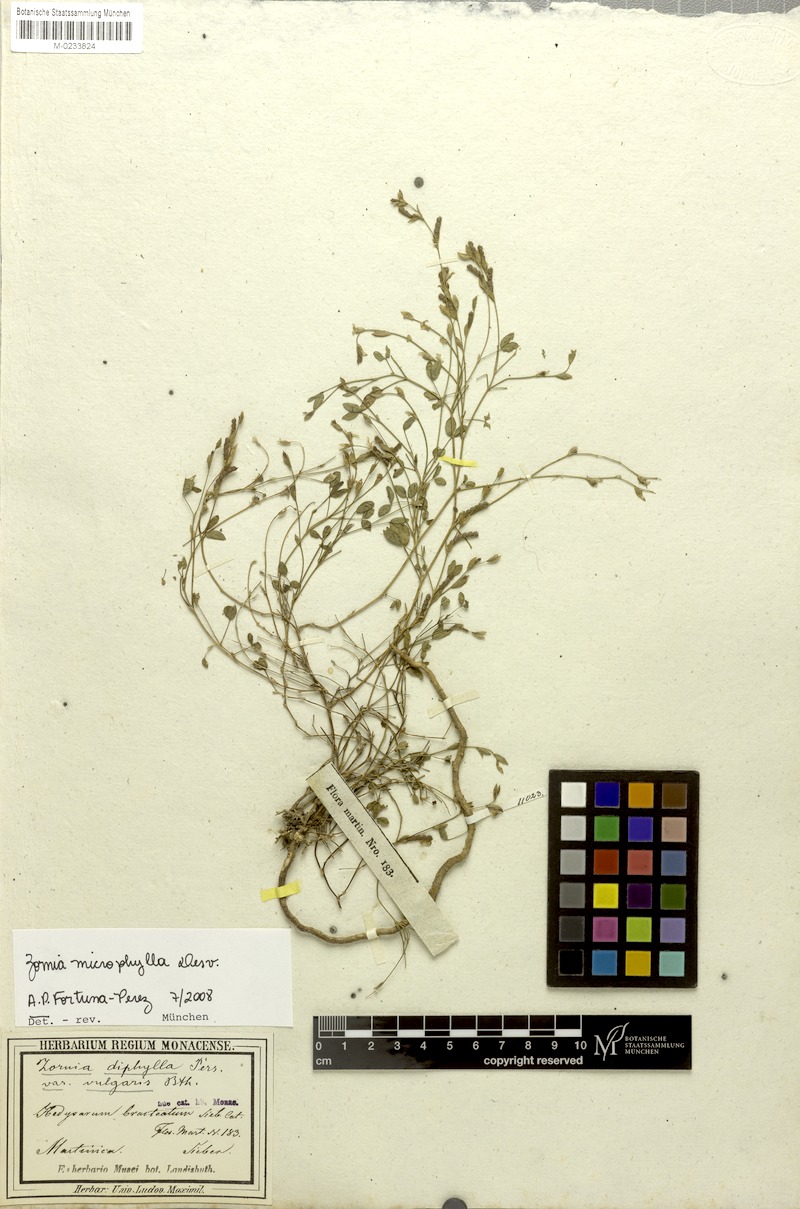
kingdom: Plantae
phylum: Tracheophyta
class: Magnoliopsida
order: Fabales
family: Fabaceae
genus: Zornia
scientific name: Zornia microphylla
